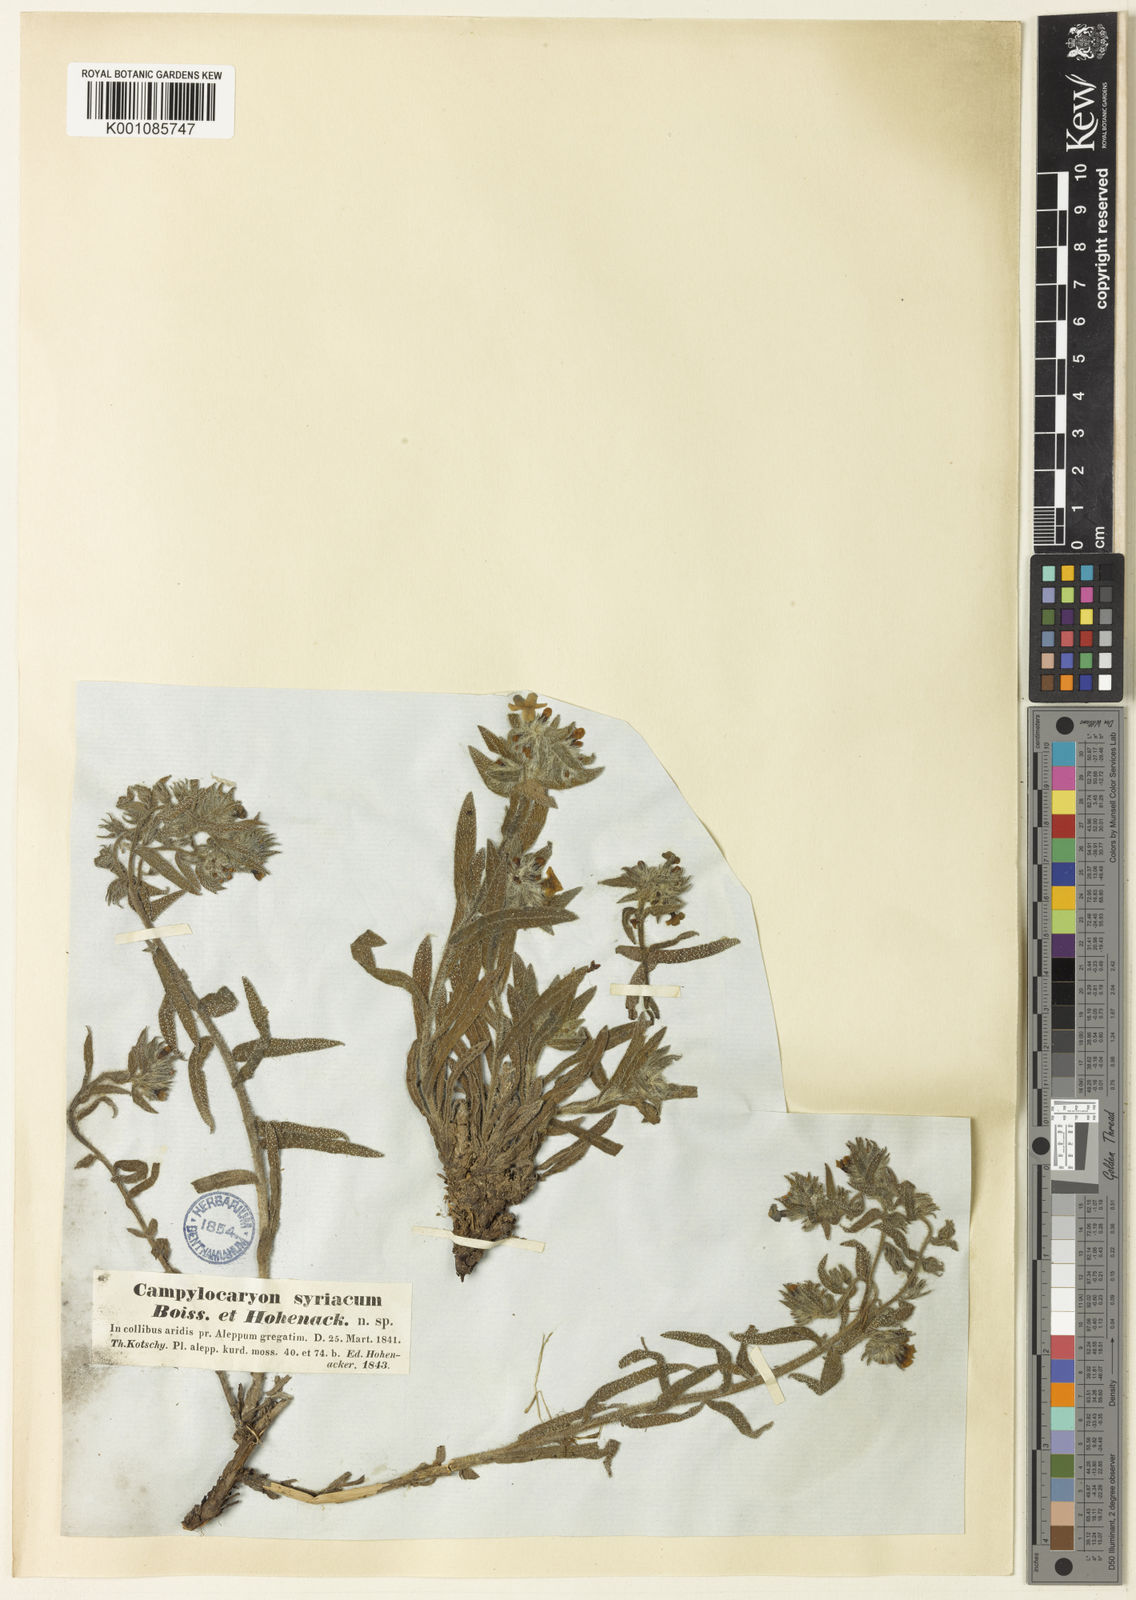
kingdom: Plantae
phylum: Tracheophyta
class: Magnoliopsida
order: Boraginales
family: Boraginaceae
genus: Alkanna
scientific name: Alkanna strigosa
